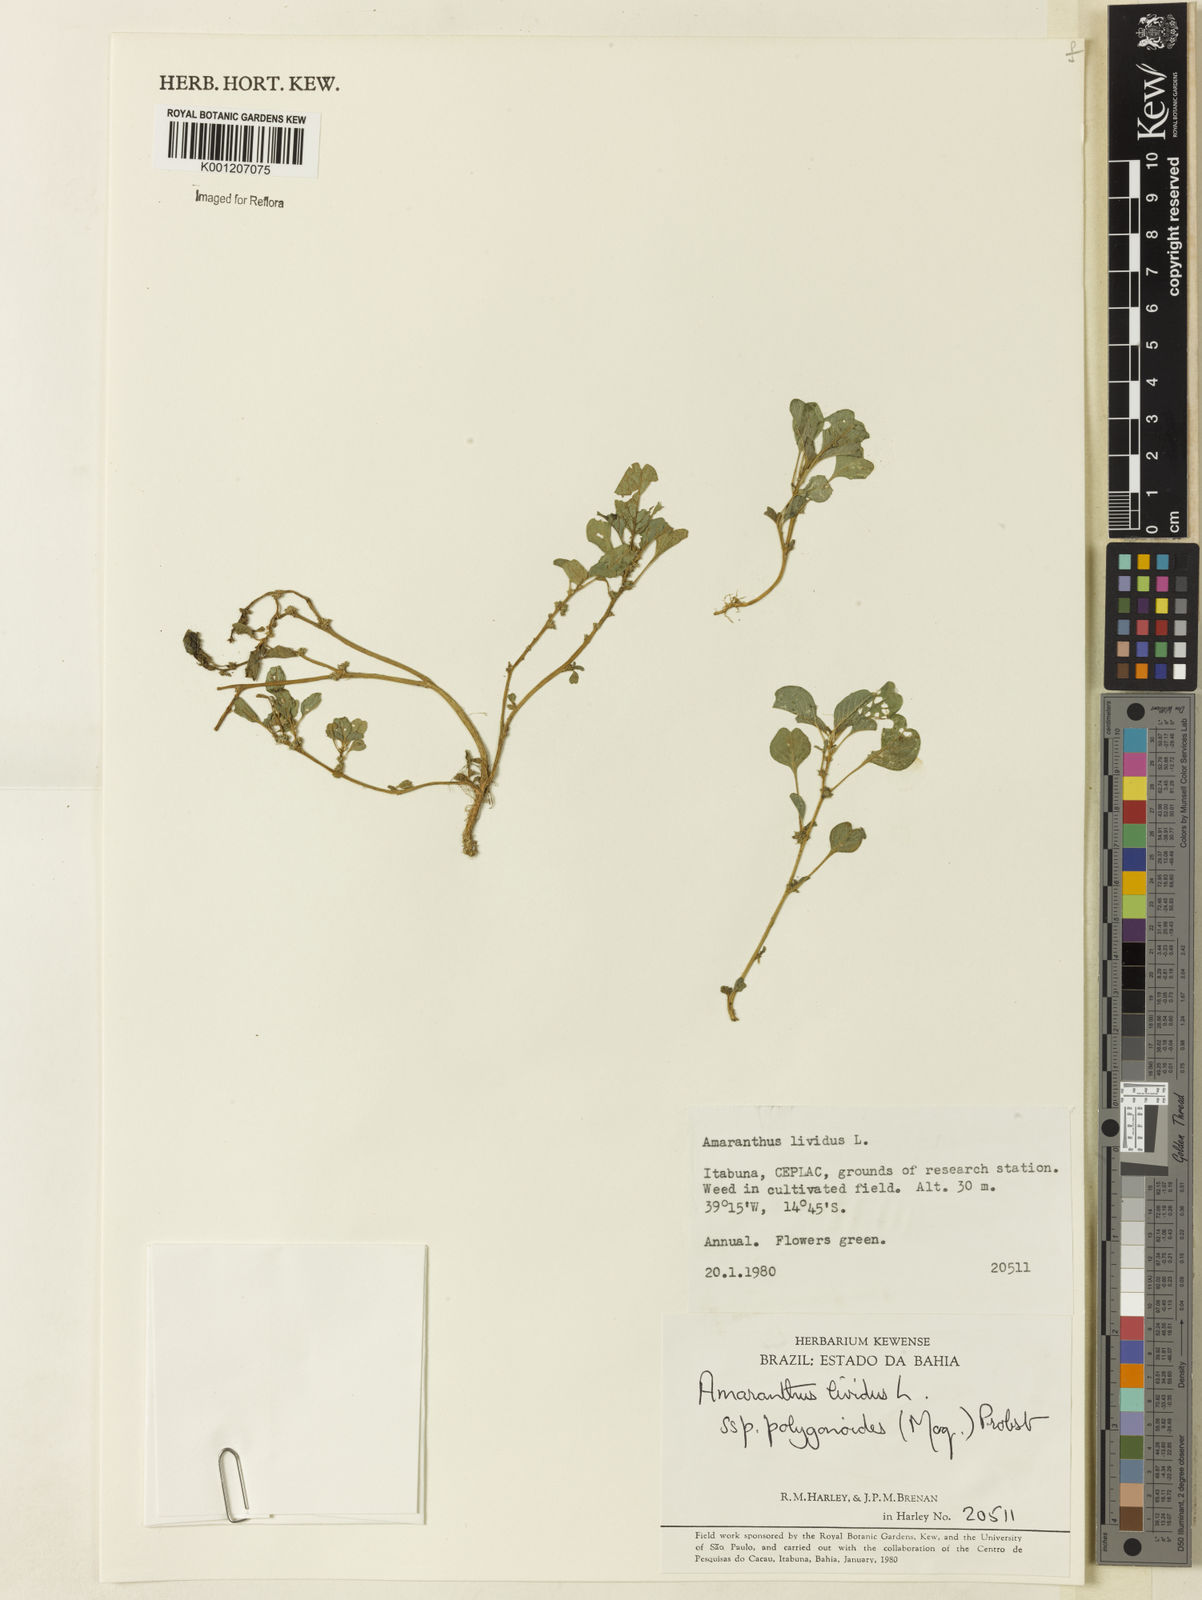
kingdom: Plantae
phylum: Tracheophyta
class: Magnoliopsida
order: Caryophyllales
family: Amaranthaceae
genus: Amaranthus
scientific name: Amaranthus emarginatus
